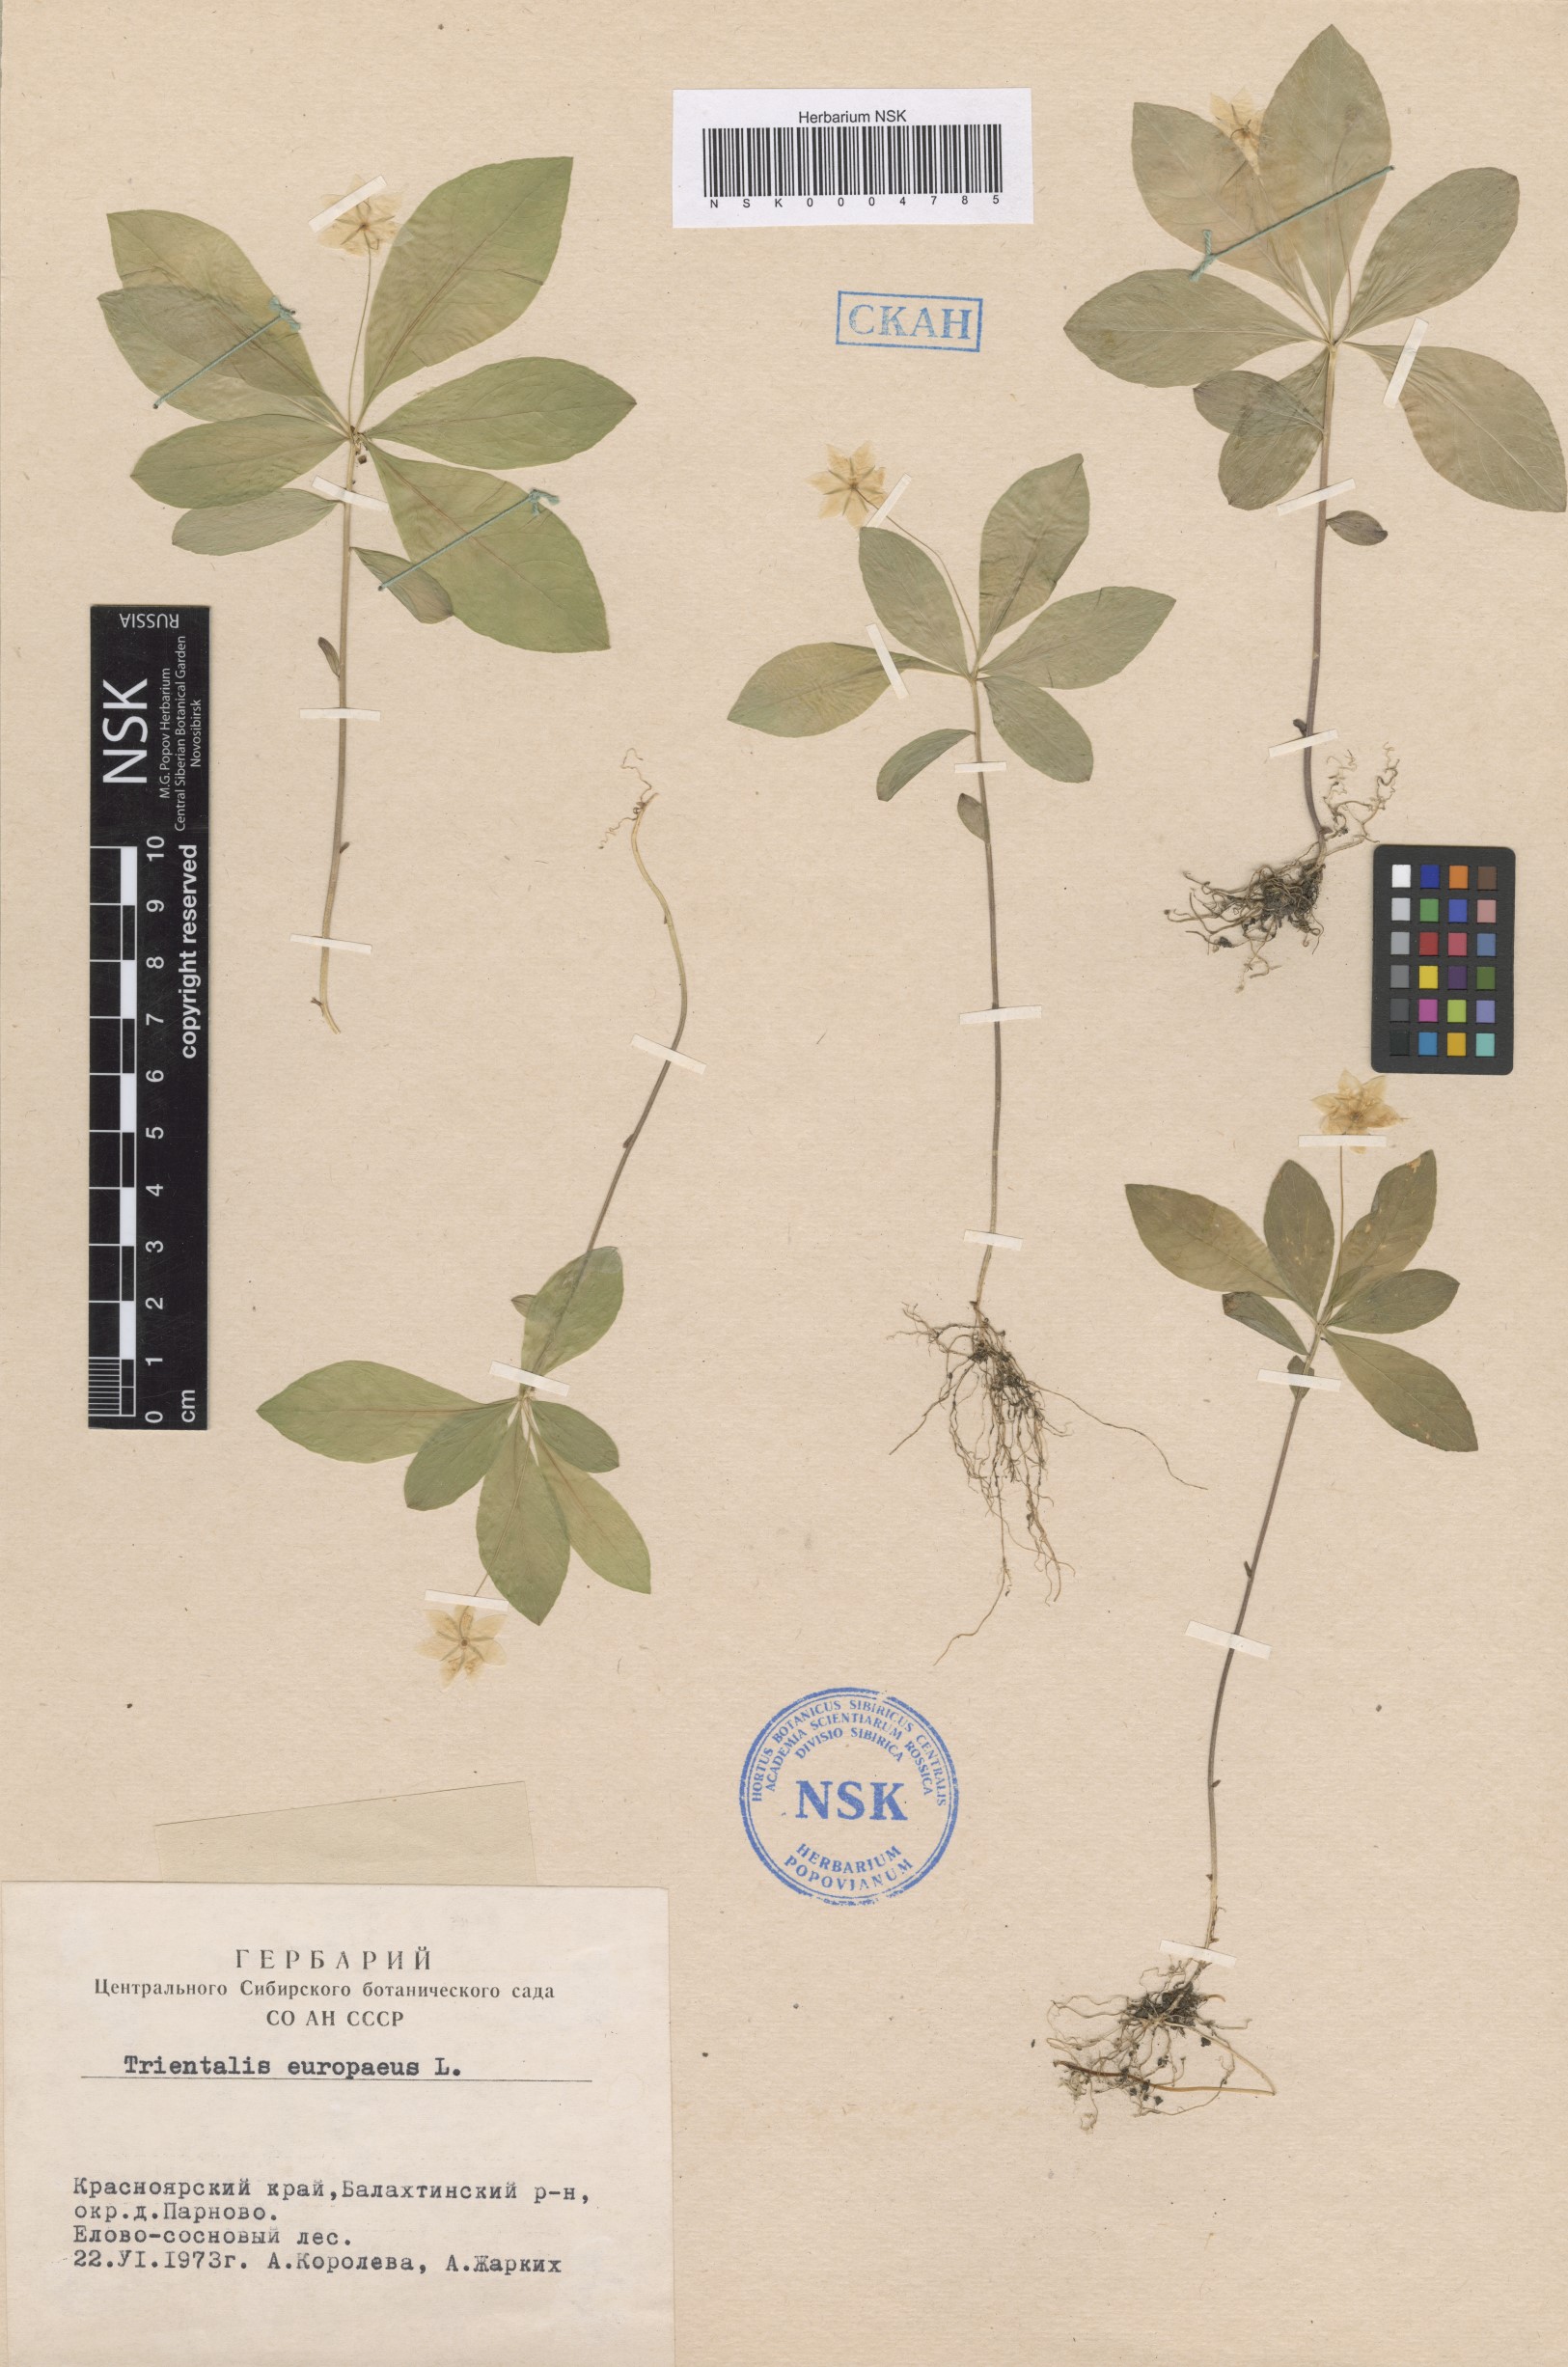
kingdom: Plantae
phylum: Tracheophyta
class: Magnoliopsida
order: Ericales
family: Primulaceae
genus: Lysimachia
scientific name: Lysimachia europaea
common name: Arctic starflower
